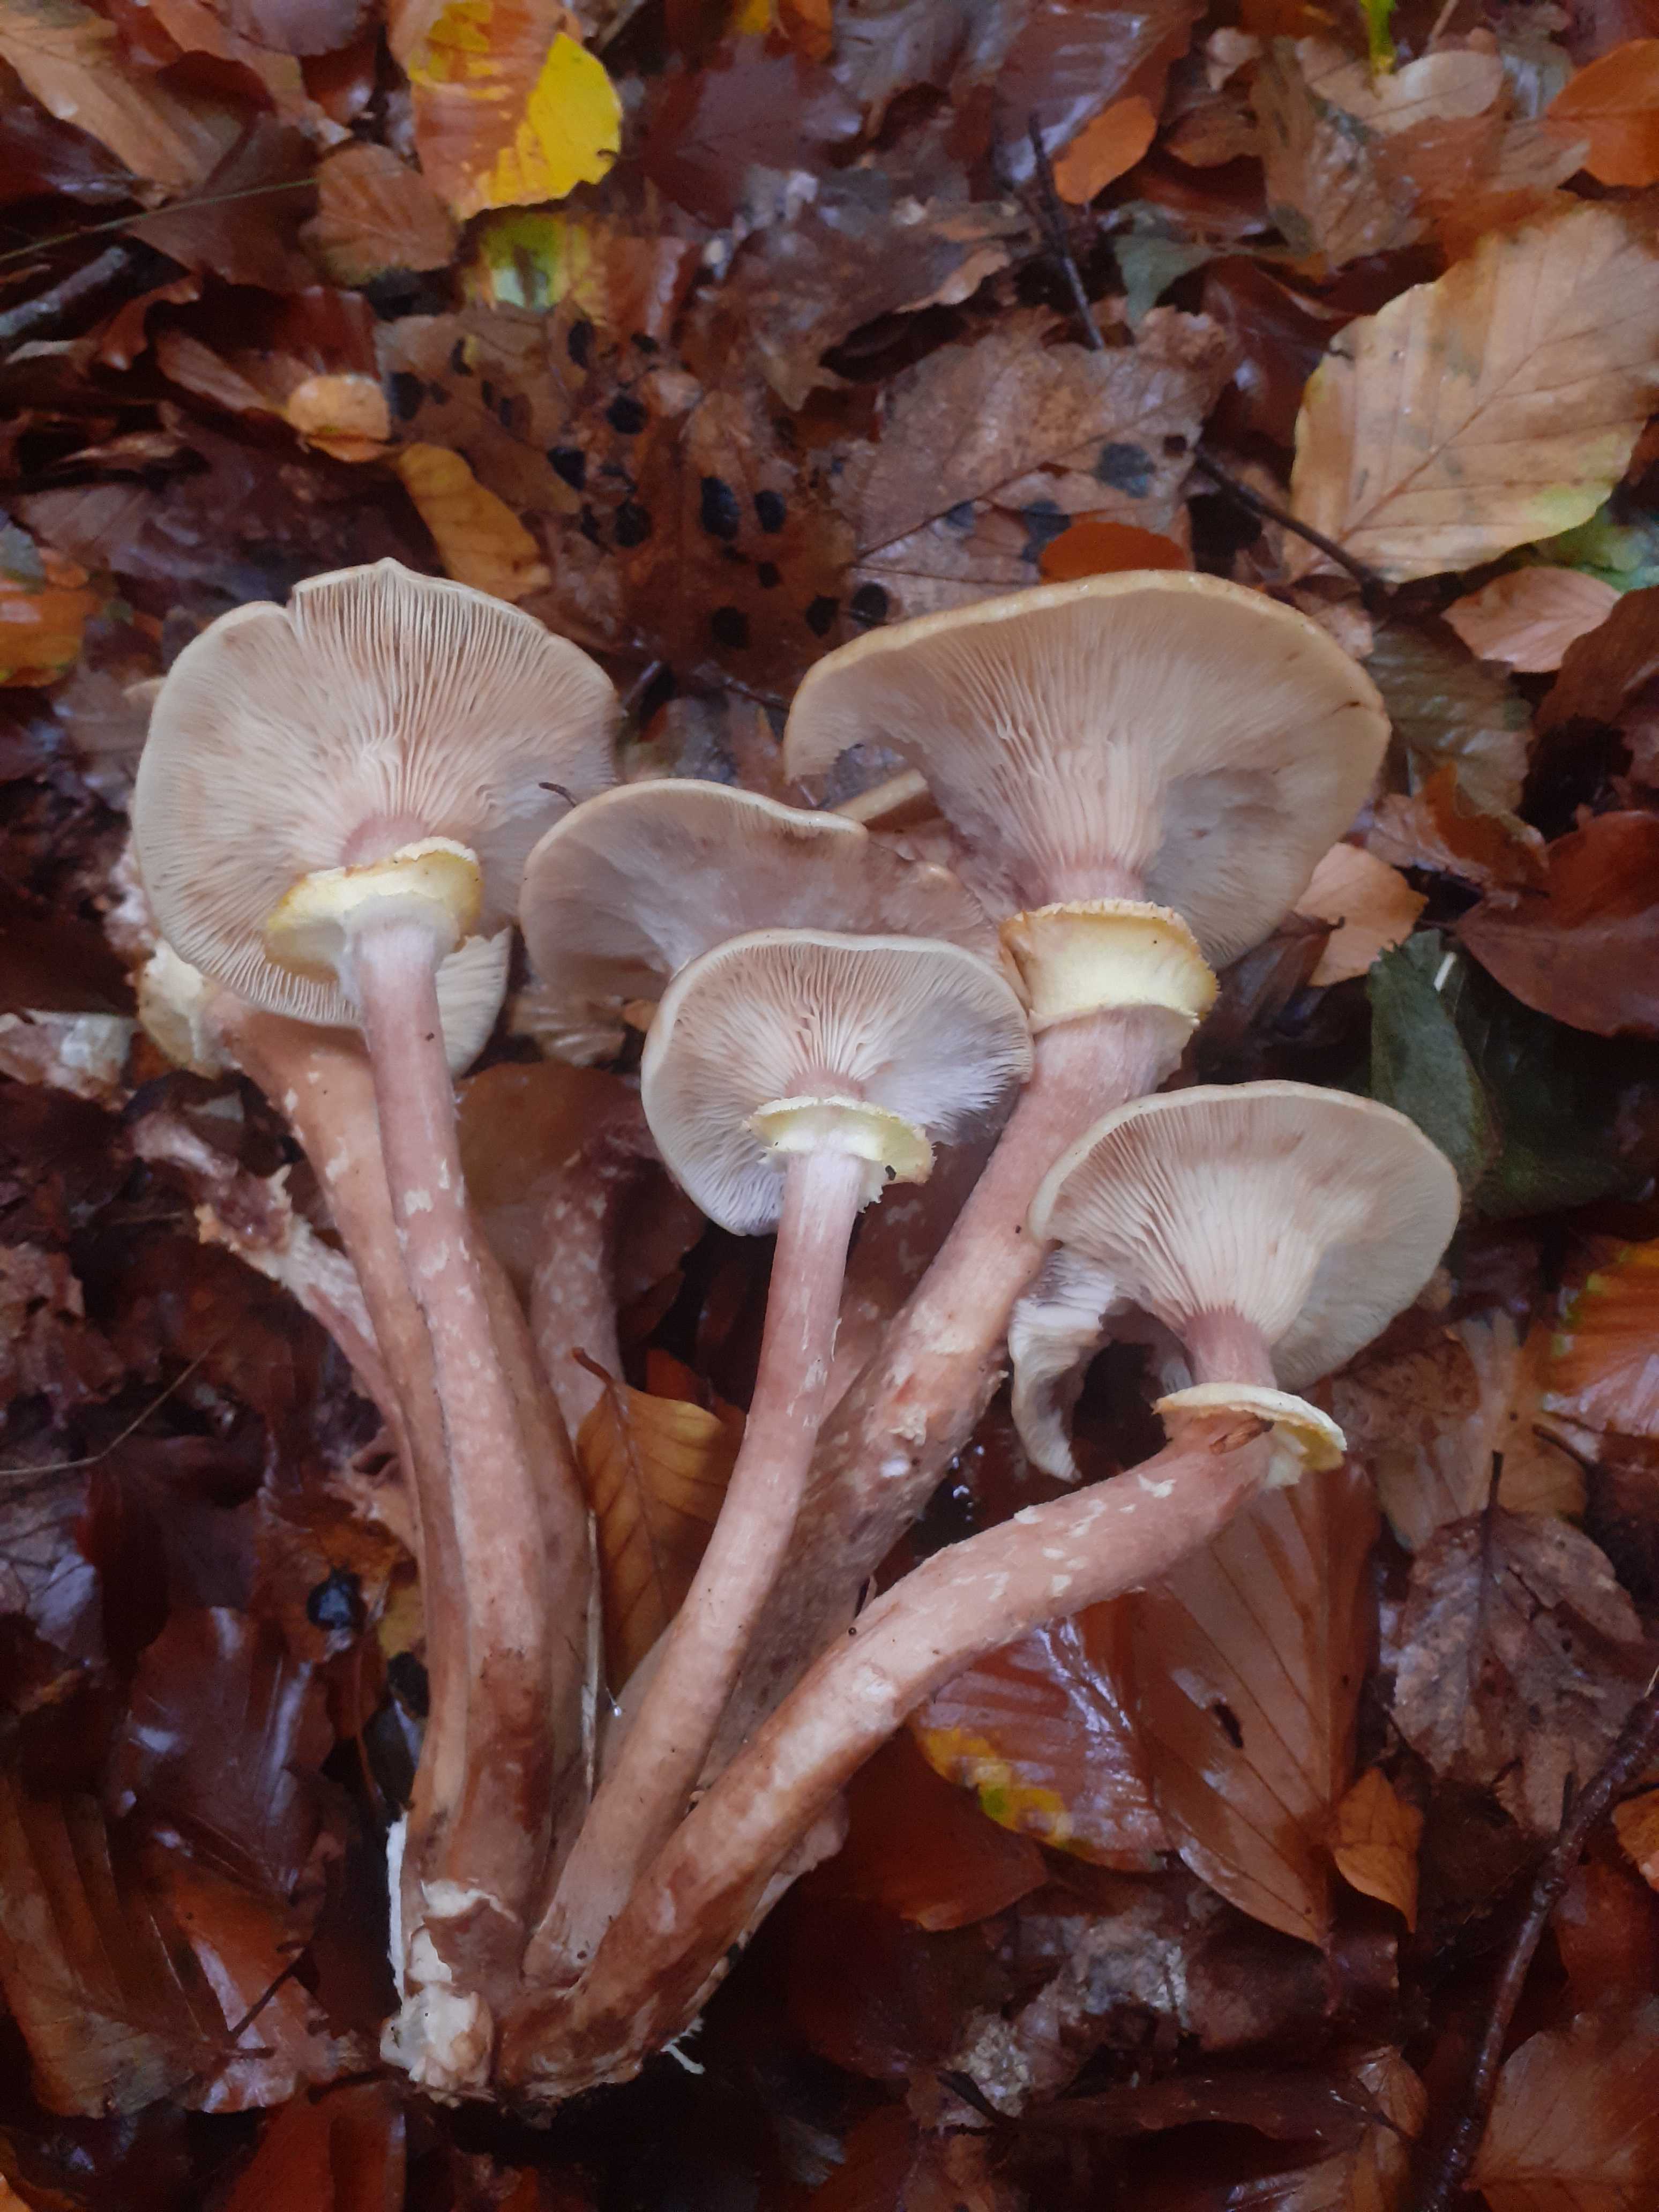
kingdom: Fungi
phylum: Basidiomycota
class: Agaricomycetes
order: Agaricales
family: Physalacriaceae
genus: Armillaria
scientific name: Armillaria mellea
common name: ægte honningsvamp
